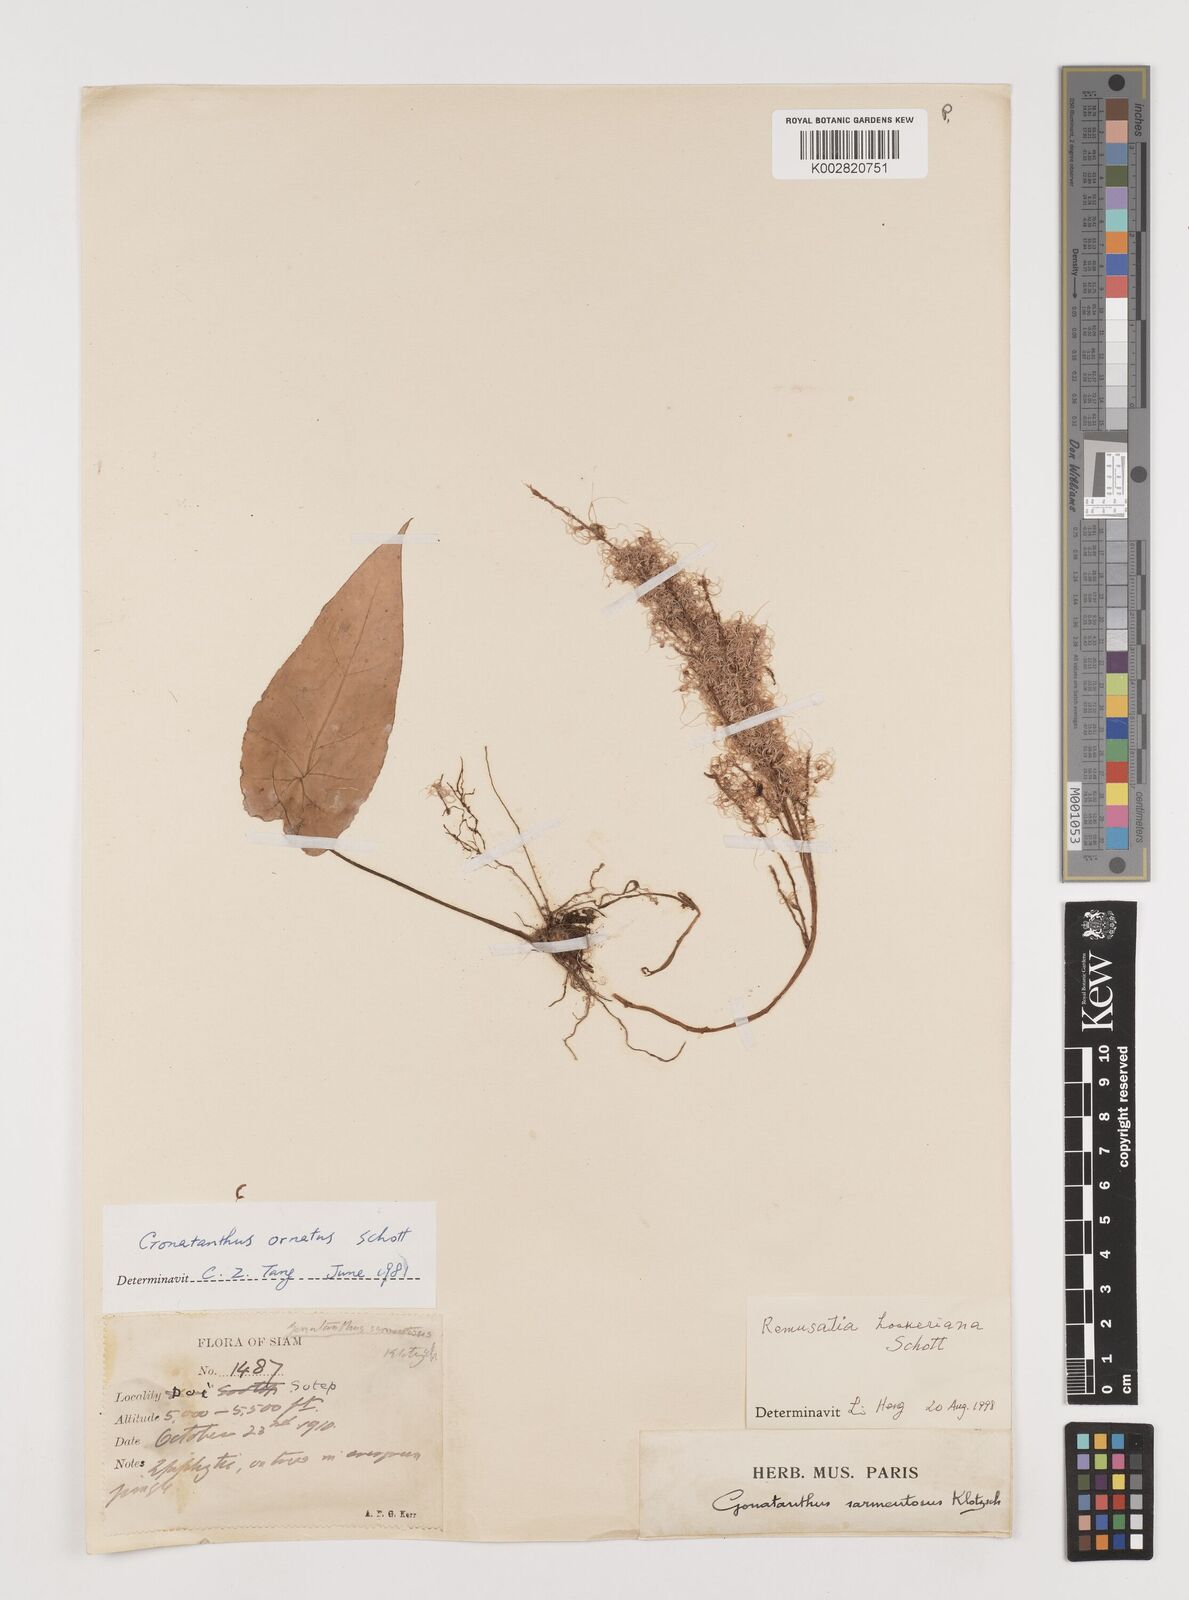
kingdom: Plantae
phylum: Tracheophyta
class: Liliopsida
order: Alismatales
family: Araceae
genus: Remusatia
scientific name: Remusatia hookeriana
